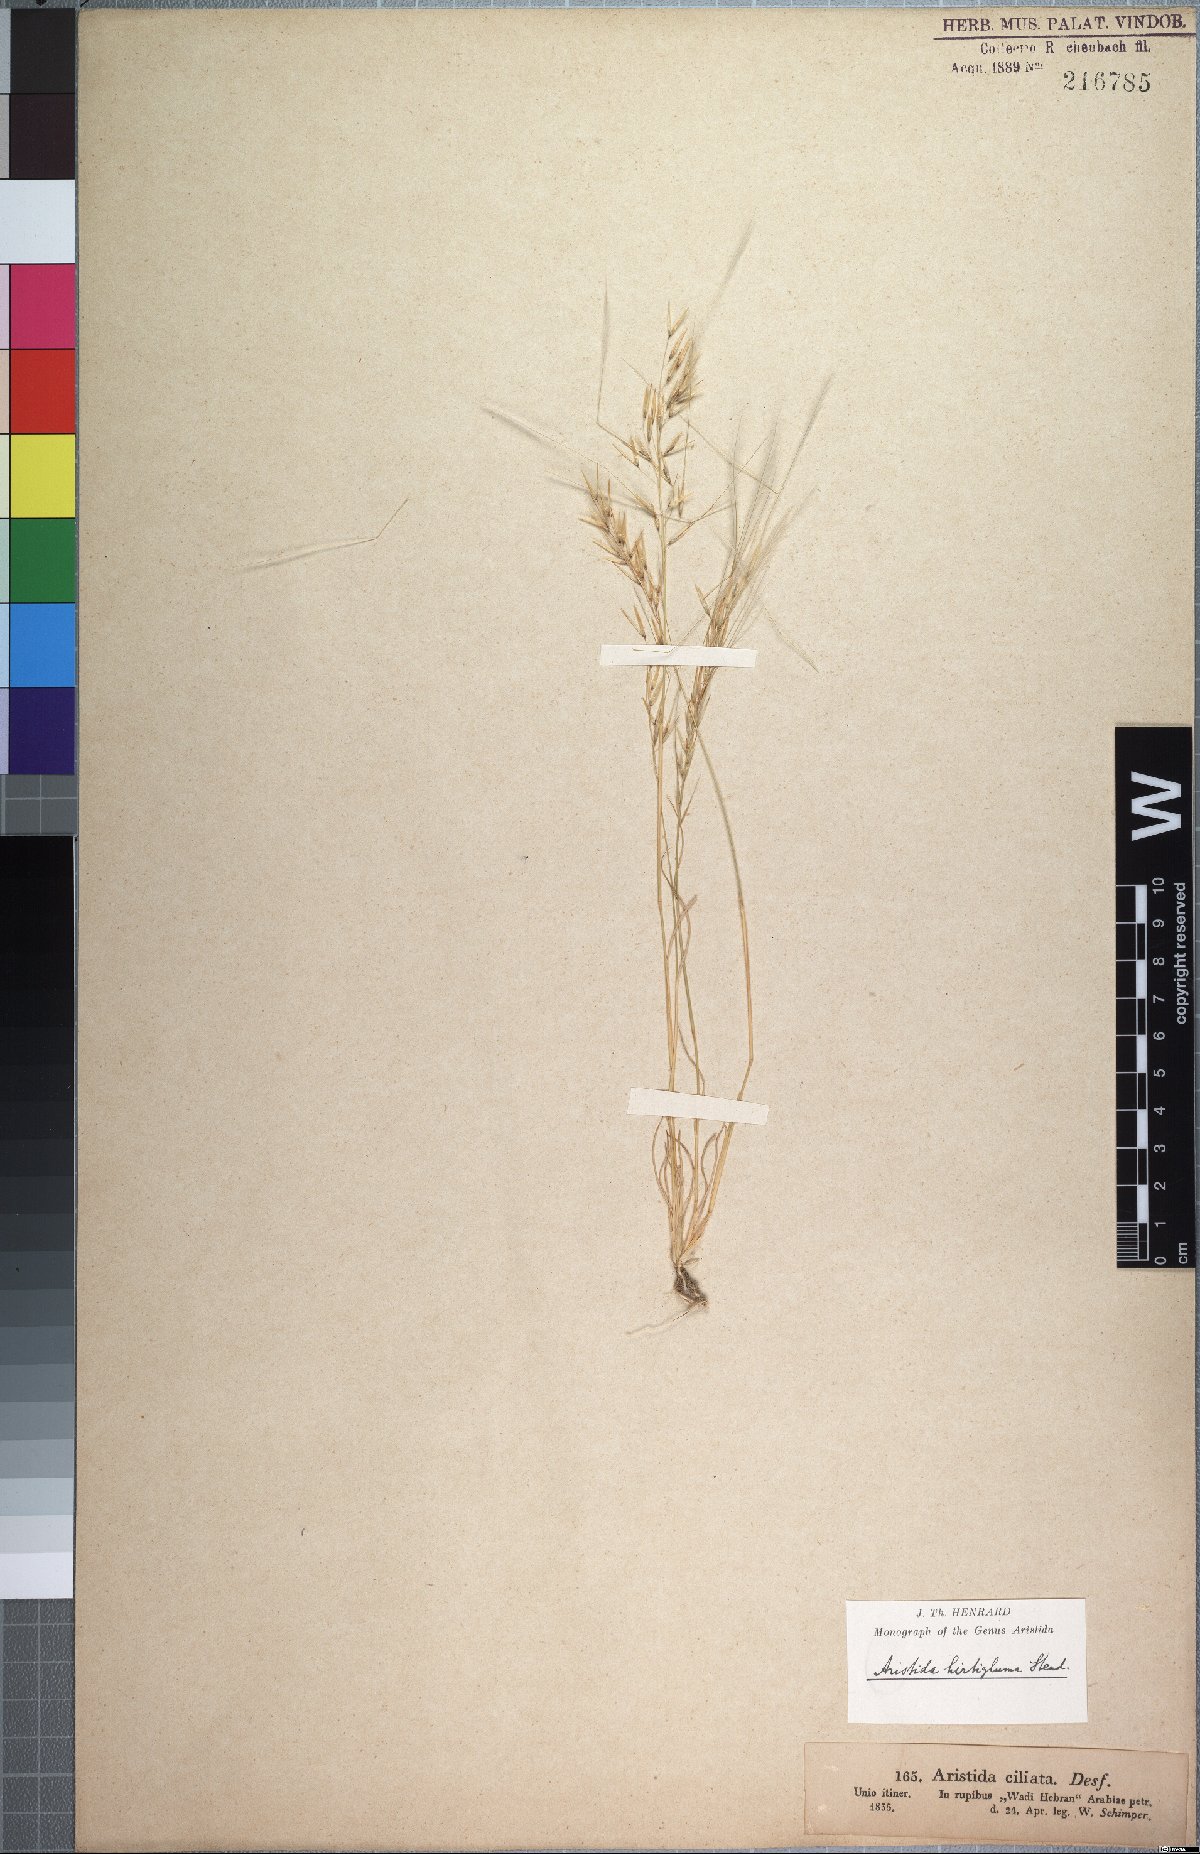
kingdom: Plantae
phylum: Tracheophyta
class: Liliopsida
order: Poales
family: Poaceae
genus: Stipagrostis
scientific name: Stipagrostis hirtigluma
